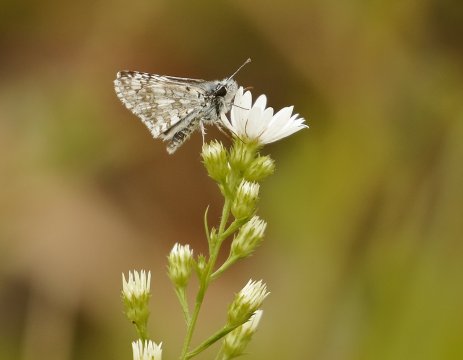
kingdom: Animalia
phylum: Arthropoda
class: Insecta
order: Lepidoptera
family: Hesperiidae
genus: Pyrgus
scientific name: Pyrgus communis
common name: Common Checkered-Skipper
